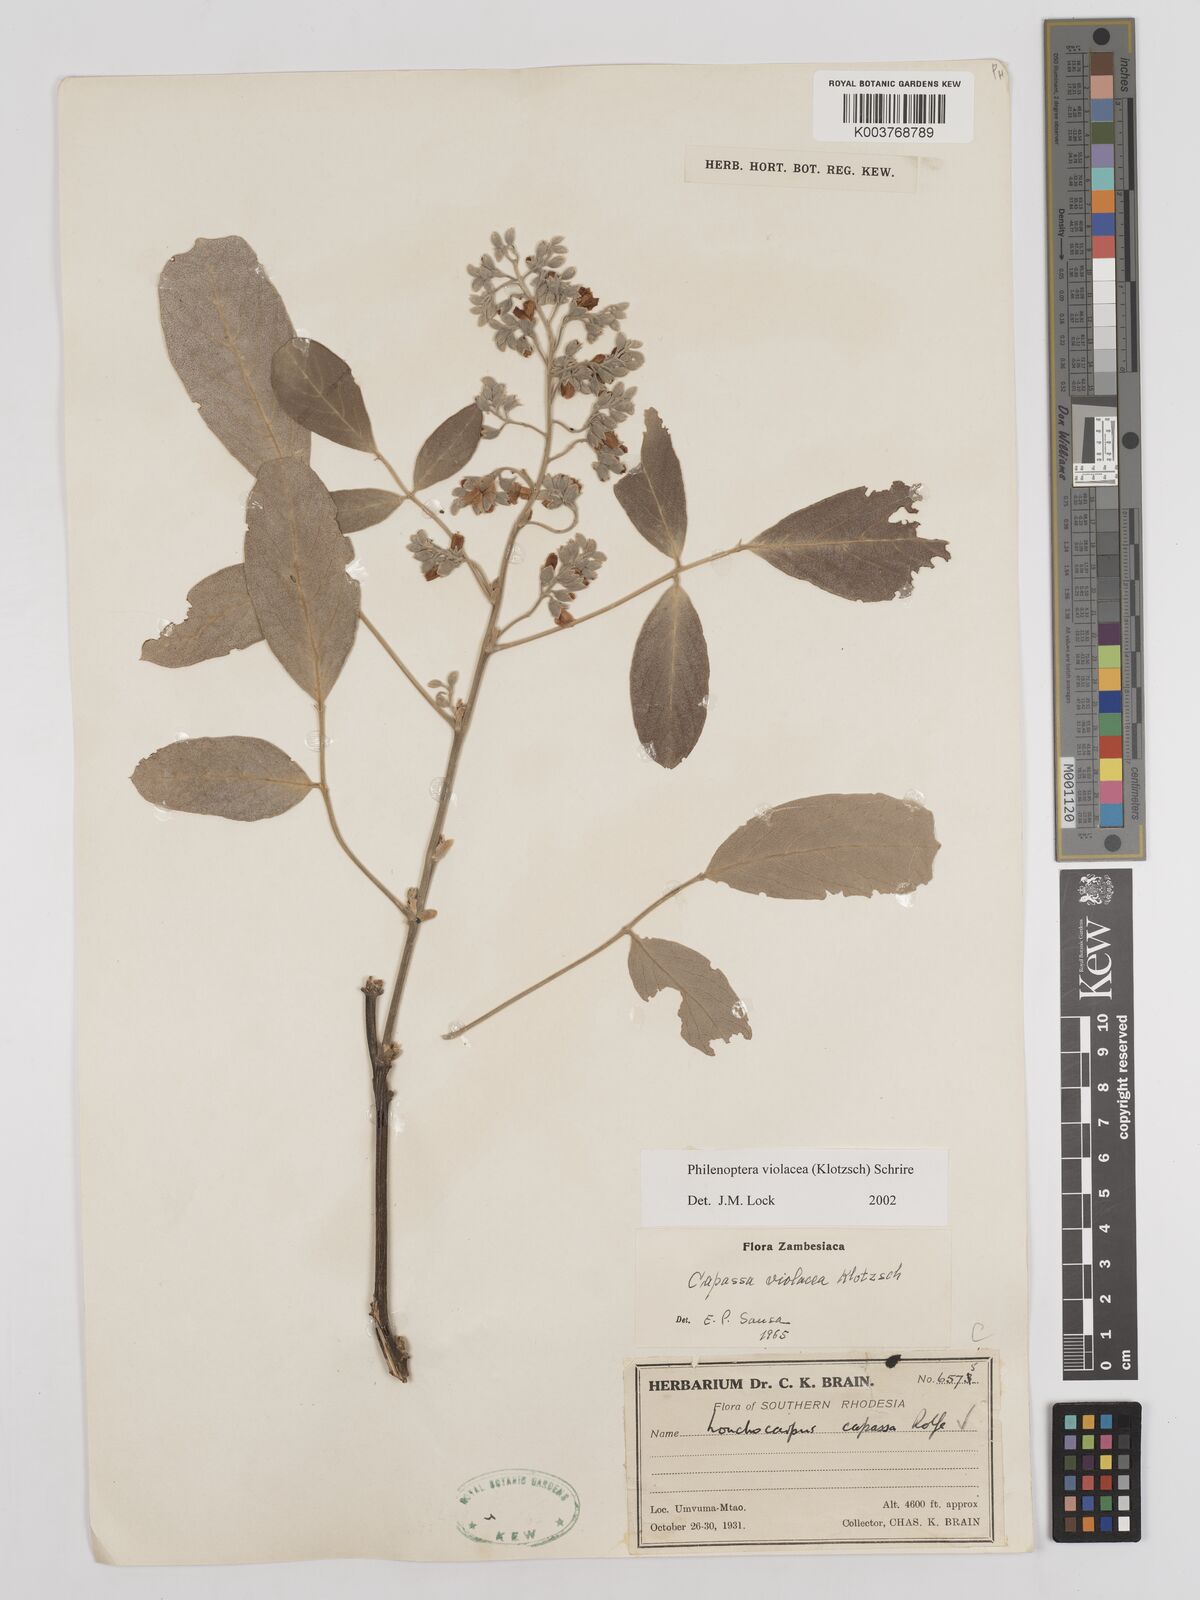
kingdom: Plantae
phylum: Tracheophyta
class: Magnoliopsida
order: Fabales
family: Fabaceae
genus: Philenoptera
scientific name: Philenoptera violacea
